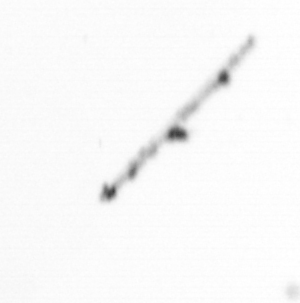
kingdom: Chromista
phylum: Ochrophyta
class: Bacillariophyceae
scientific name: Bacillariophyceae
